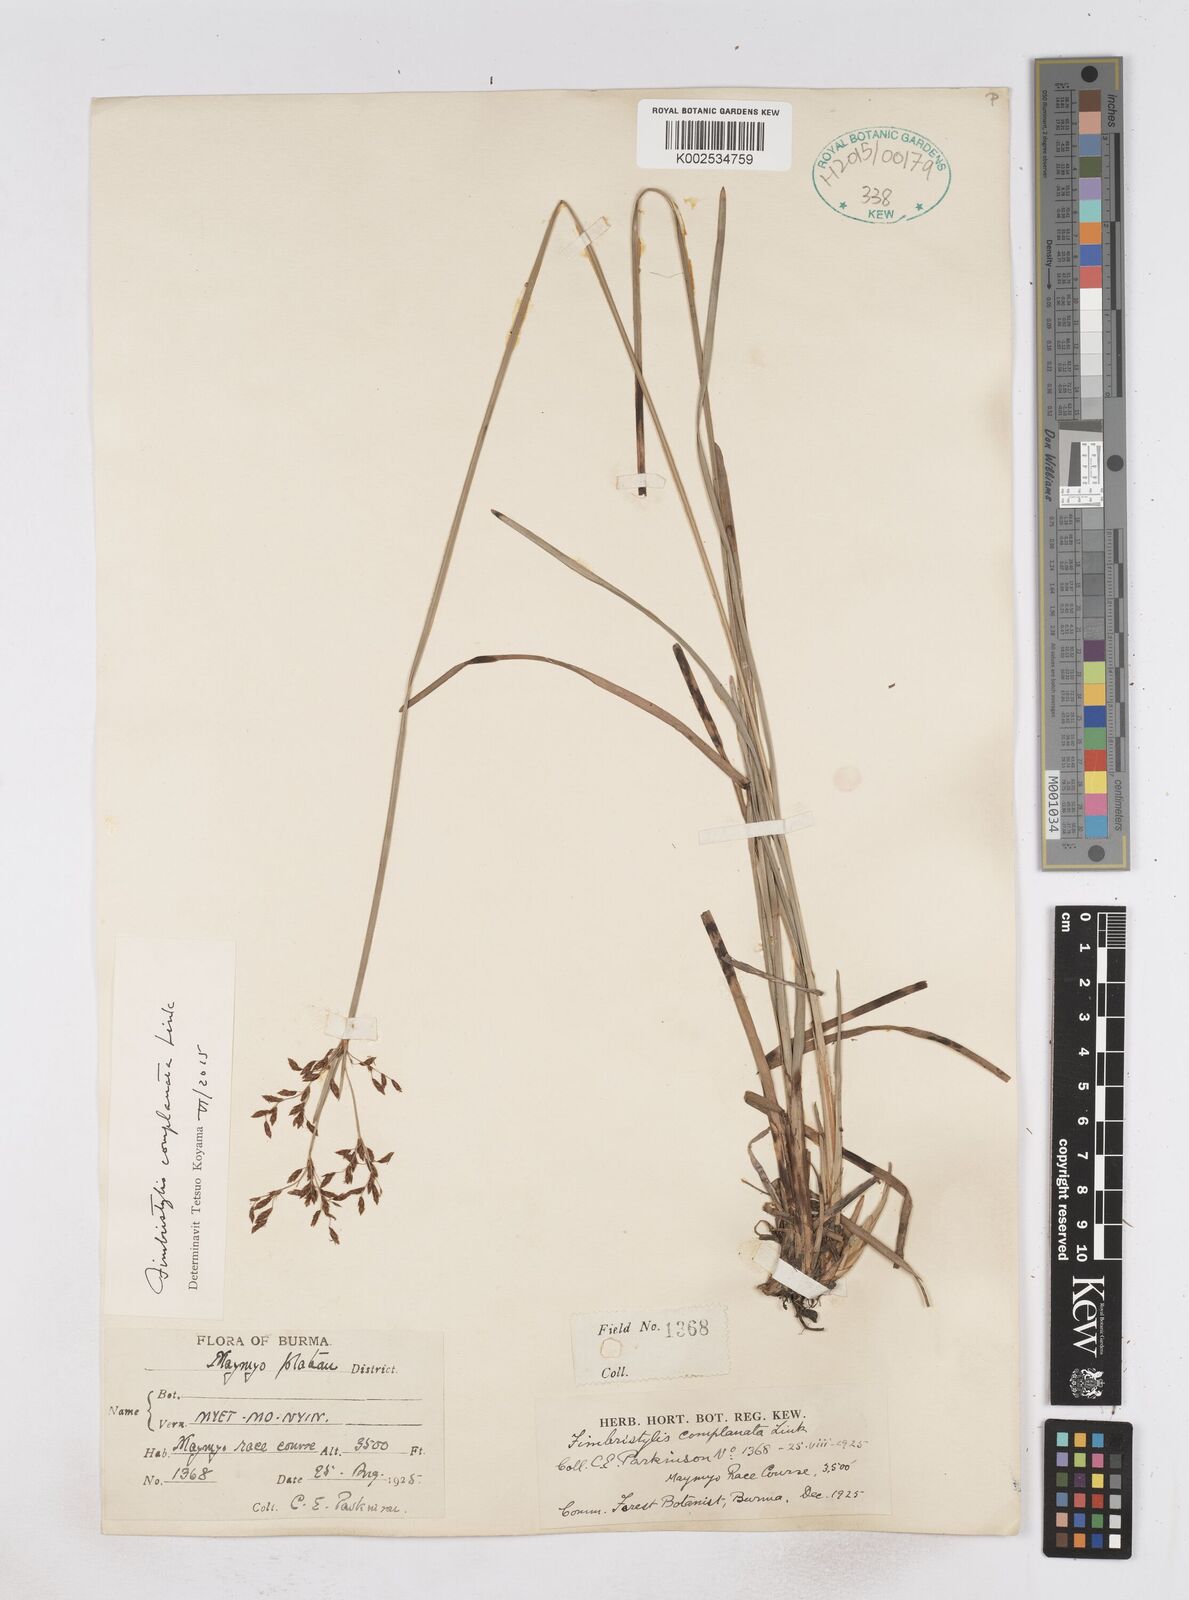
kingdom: Plantae
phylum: Tracheophyta
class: Liliopsida
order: Poales
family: Cyperaceae
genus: Fimbristylis
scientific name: Fimbristylis complanata
